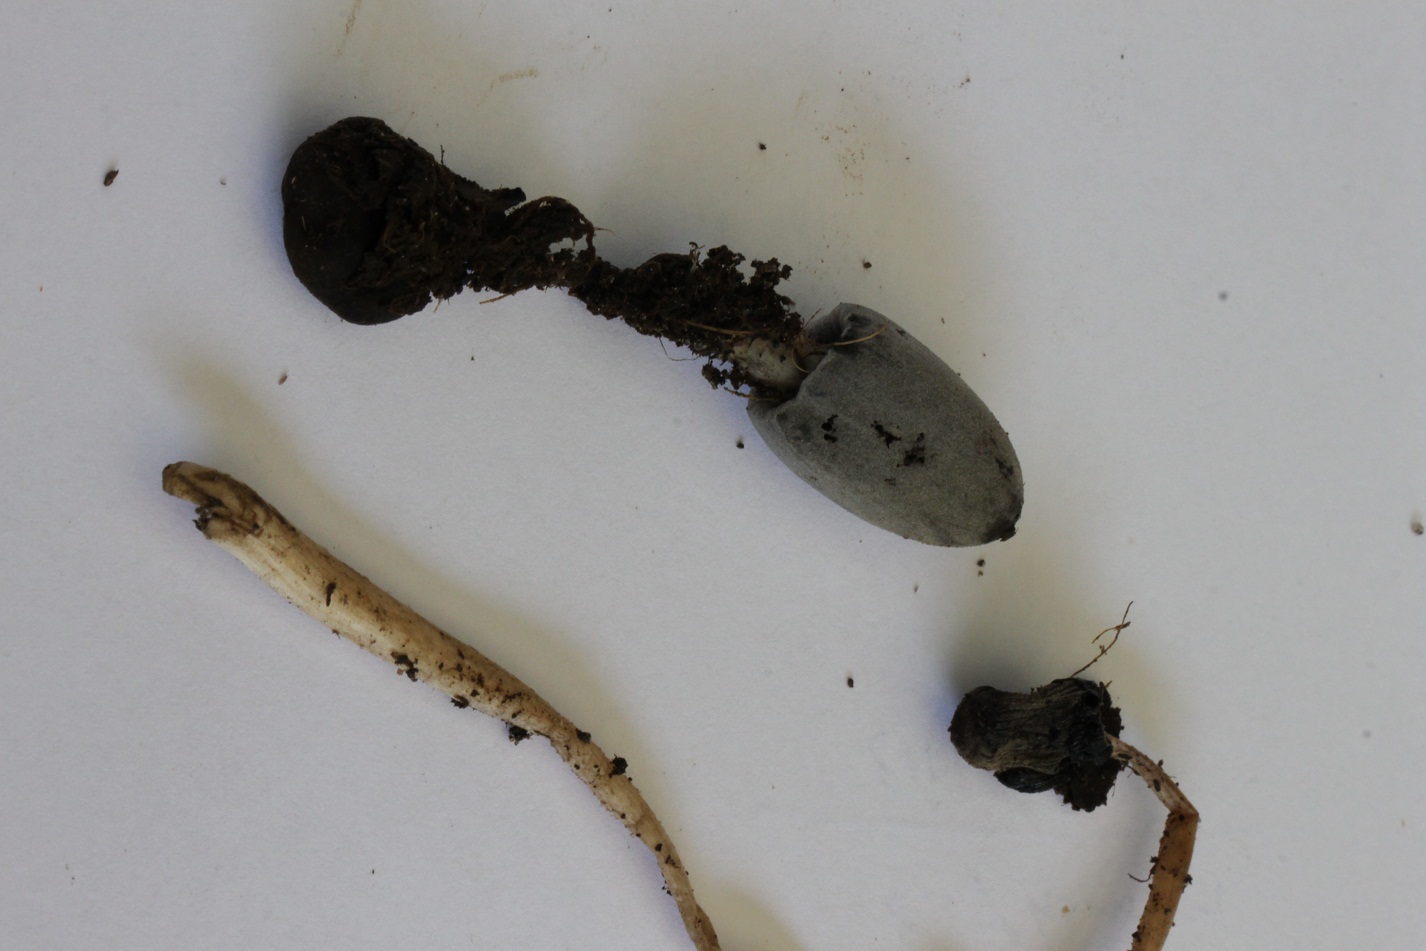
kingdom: Fungi
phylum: Basidiomycota
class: Agaricomycetes
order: Agaricales
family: Psathyrellaceae
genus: Coprinopsis
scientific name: Coprinopsis tuberosa
